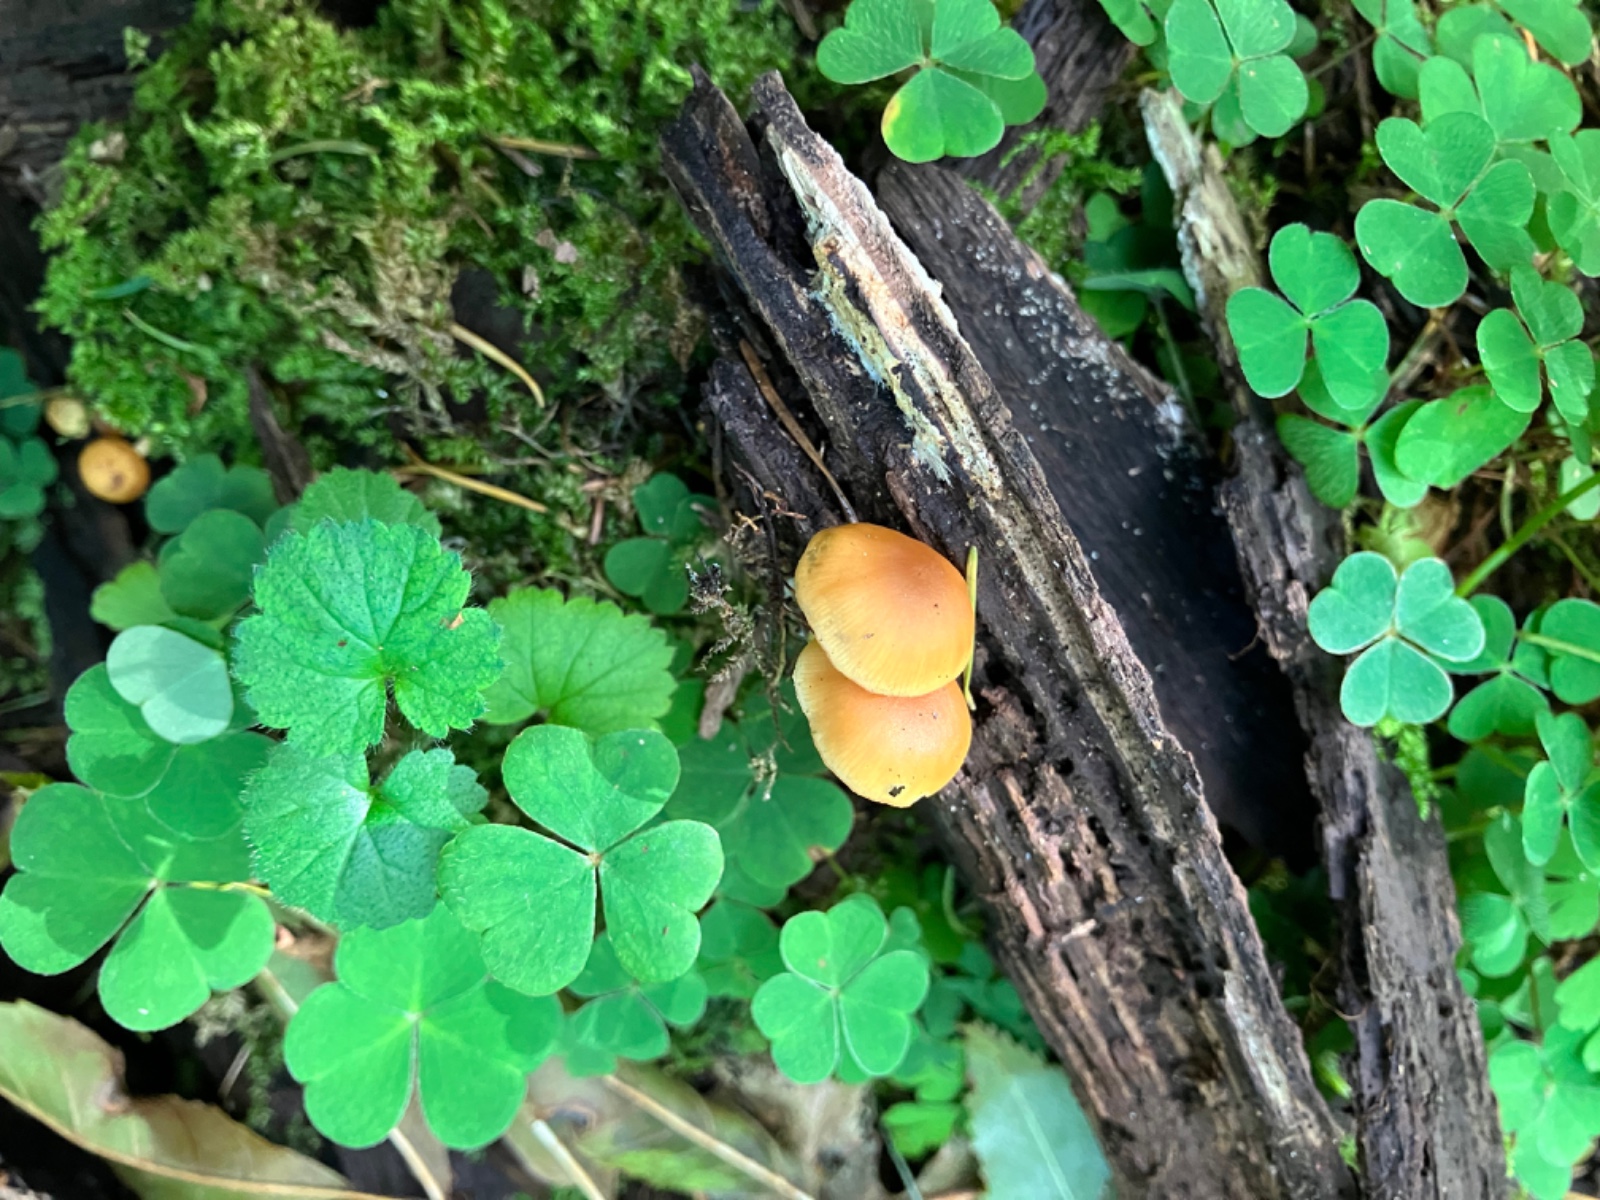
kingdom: Fungi
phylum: Basidiomycota
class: Agaricomycetes
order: Agaricales
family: Hymenogastraceae
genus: Galerina
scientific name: Galerina marginata
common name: randbæltet hjelmhat
